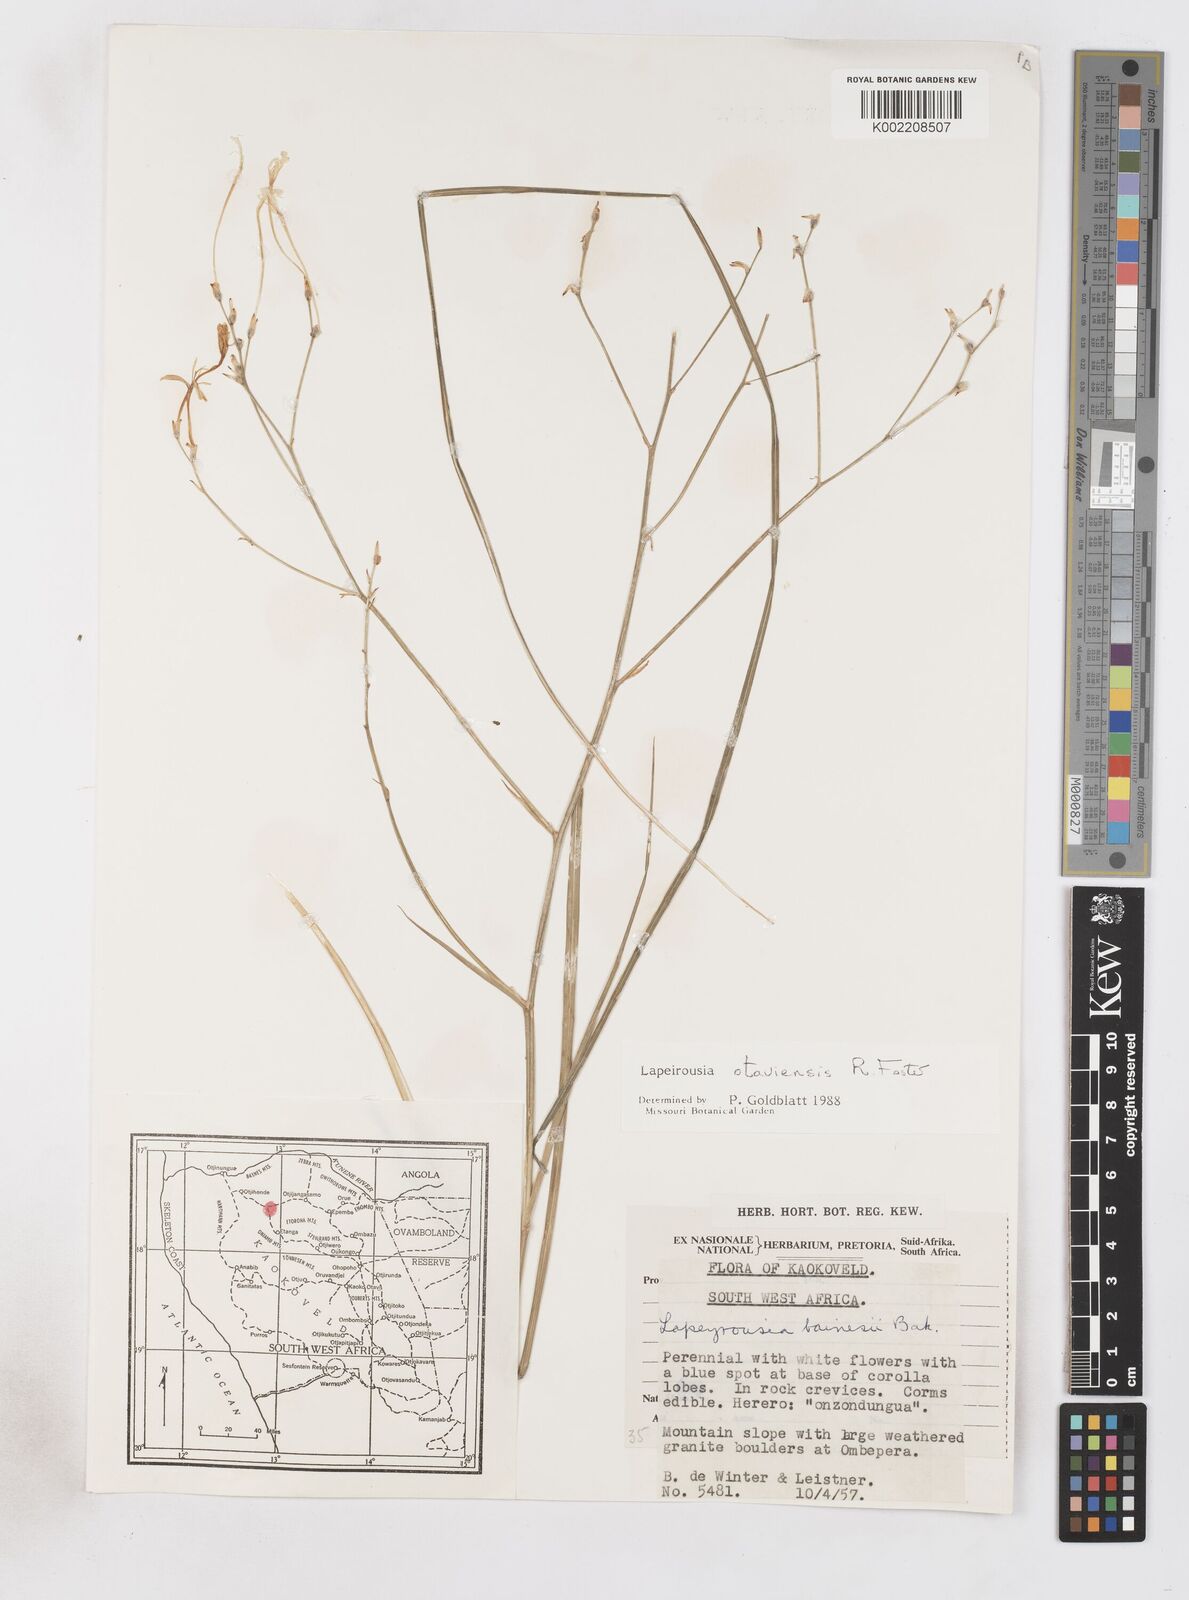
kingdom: Plantae
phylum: Tracheophyta
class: Liliopsida
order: Asparagales
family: Iridaceae
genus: Afrosolen
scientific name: Afrosolen otaviensis
